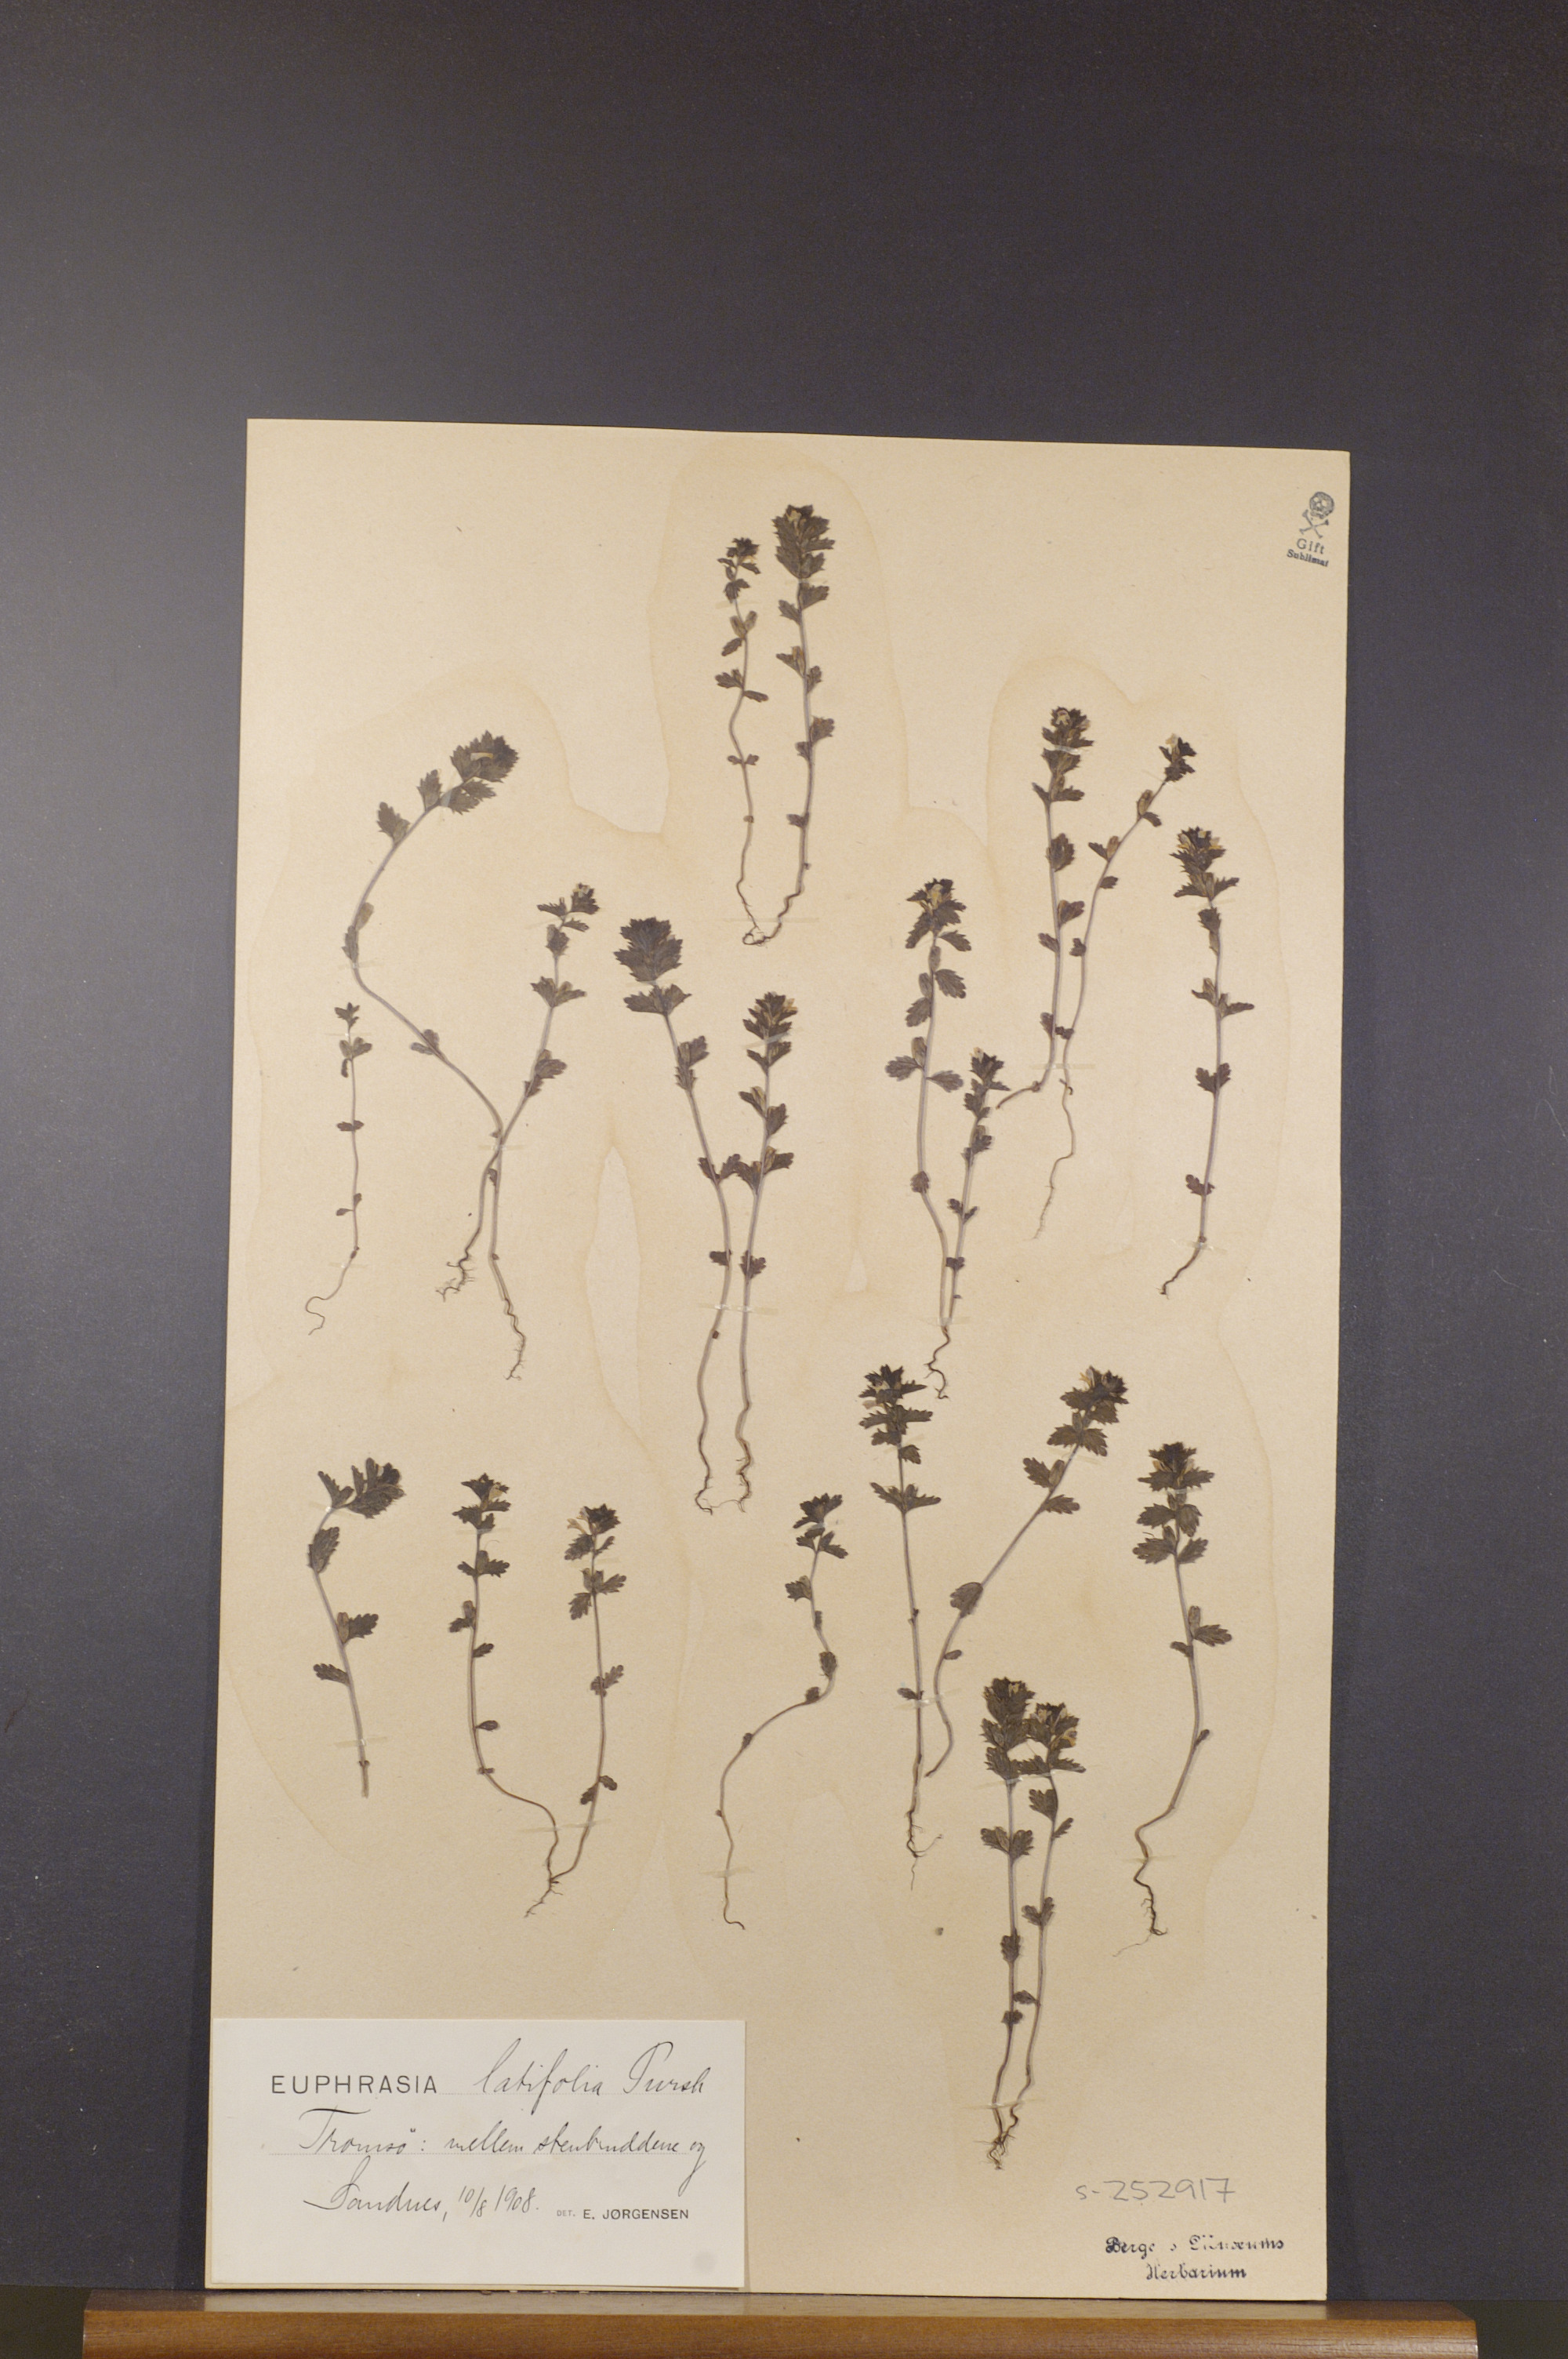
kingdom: Plantae
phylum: Tracheophyta
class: Magnoliopsida
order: Lamiales
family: Orobanchaceae
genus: Euphrasia
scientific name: Euphrasia wettsteinii
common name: Wettstein's eyebright
